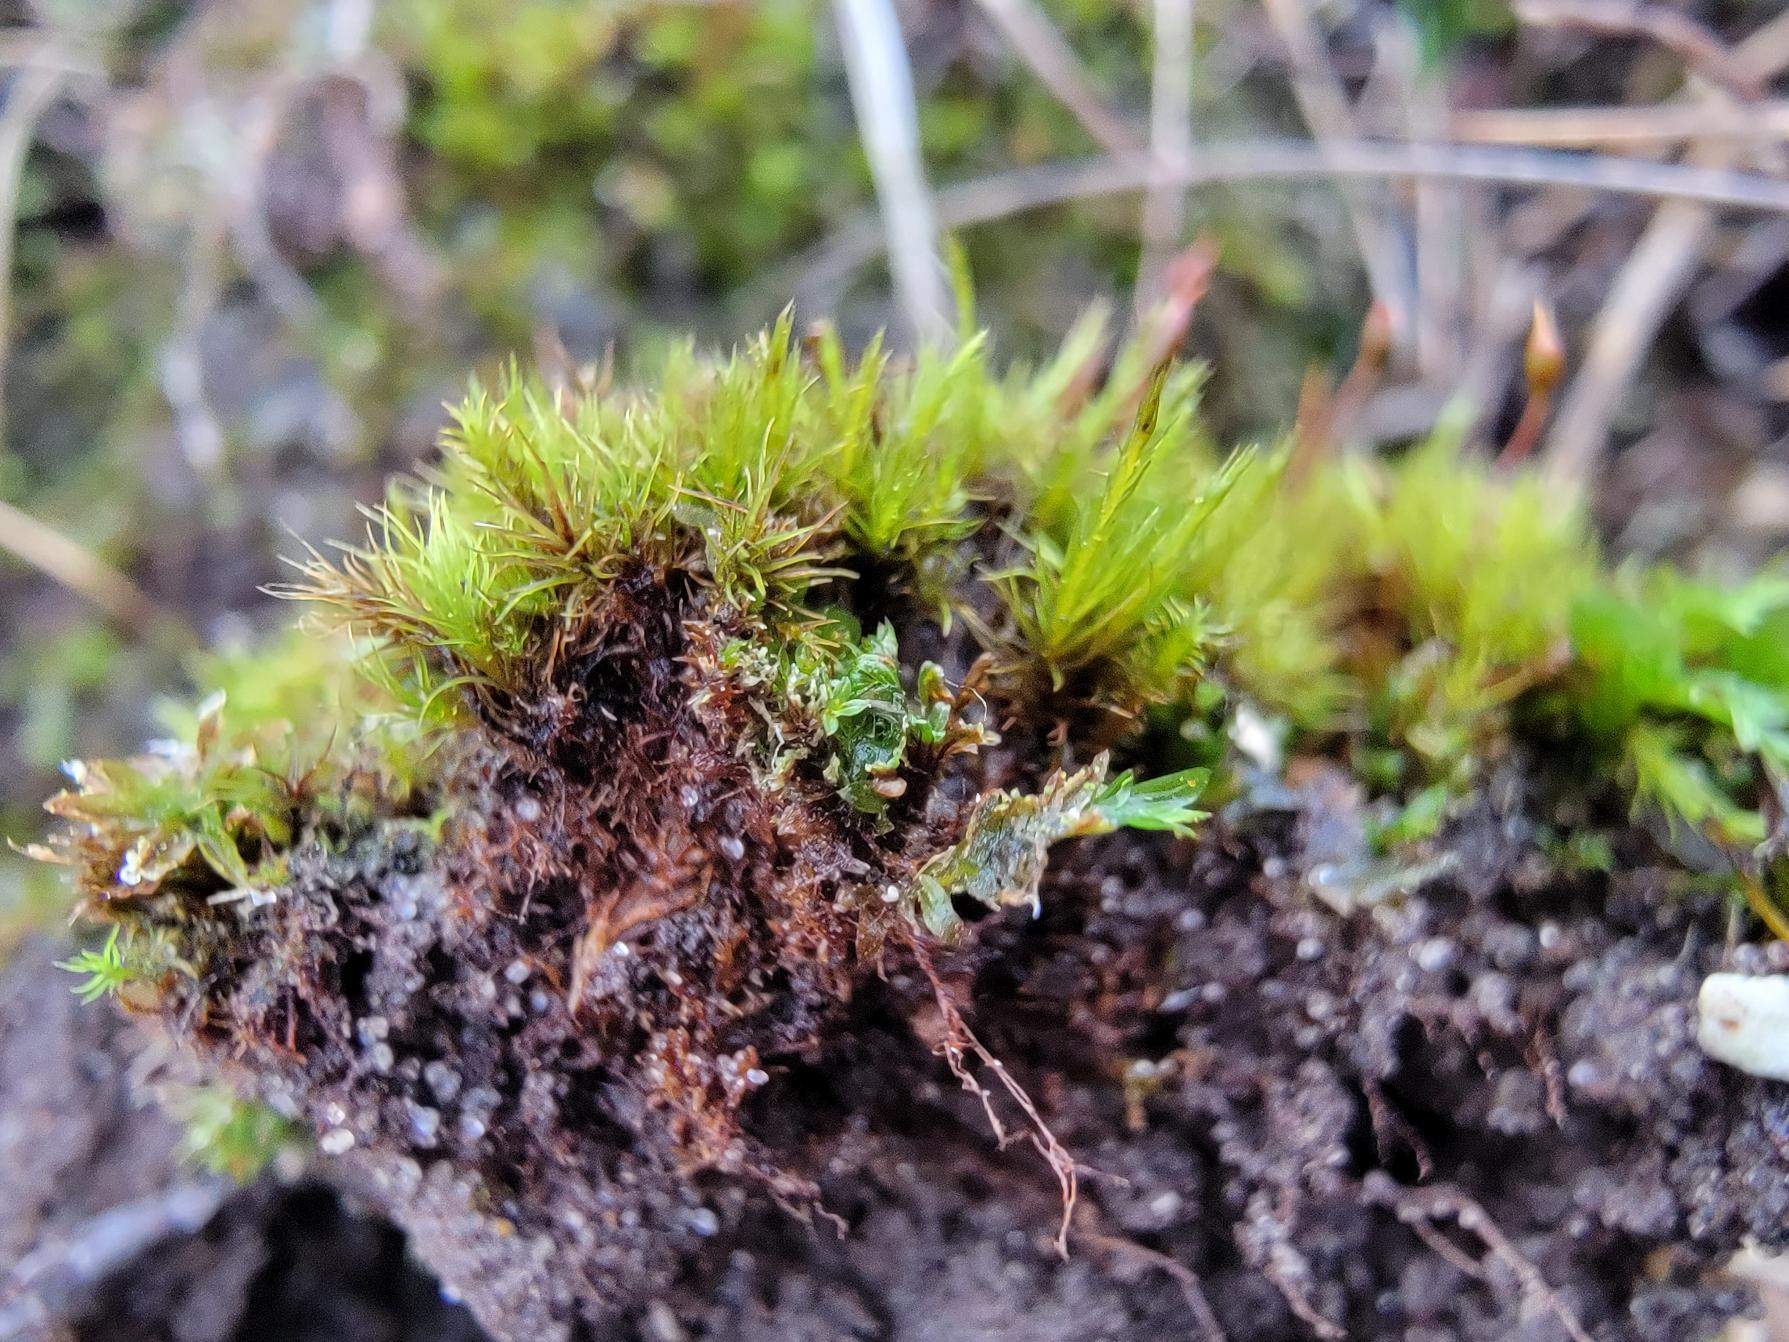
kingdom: Plantae
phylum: Bryophyta
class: Bryopsida
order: Scouleriales
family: Flexitrichaceae
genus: Flexitrichum
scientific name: Flexitrichum flexicaule
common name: Kalk-hårtand
